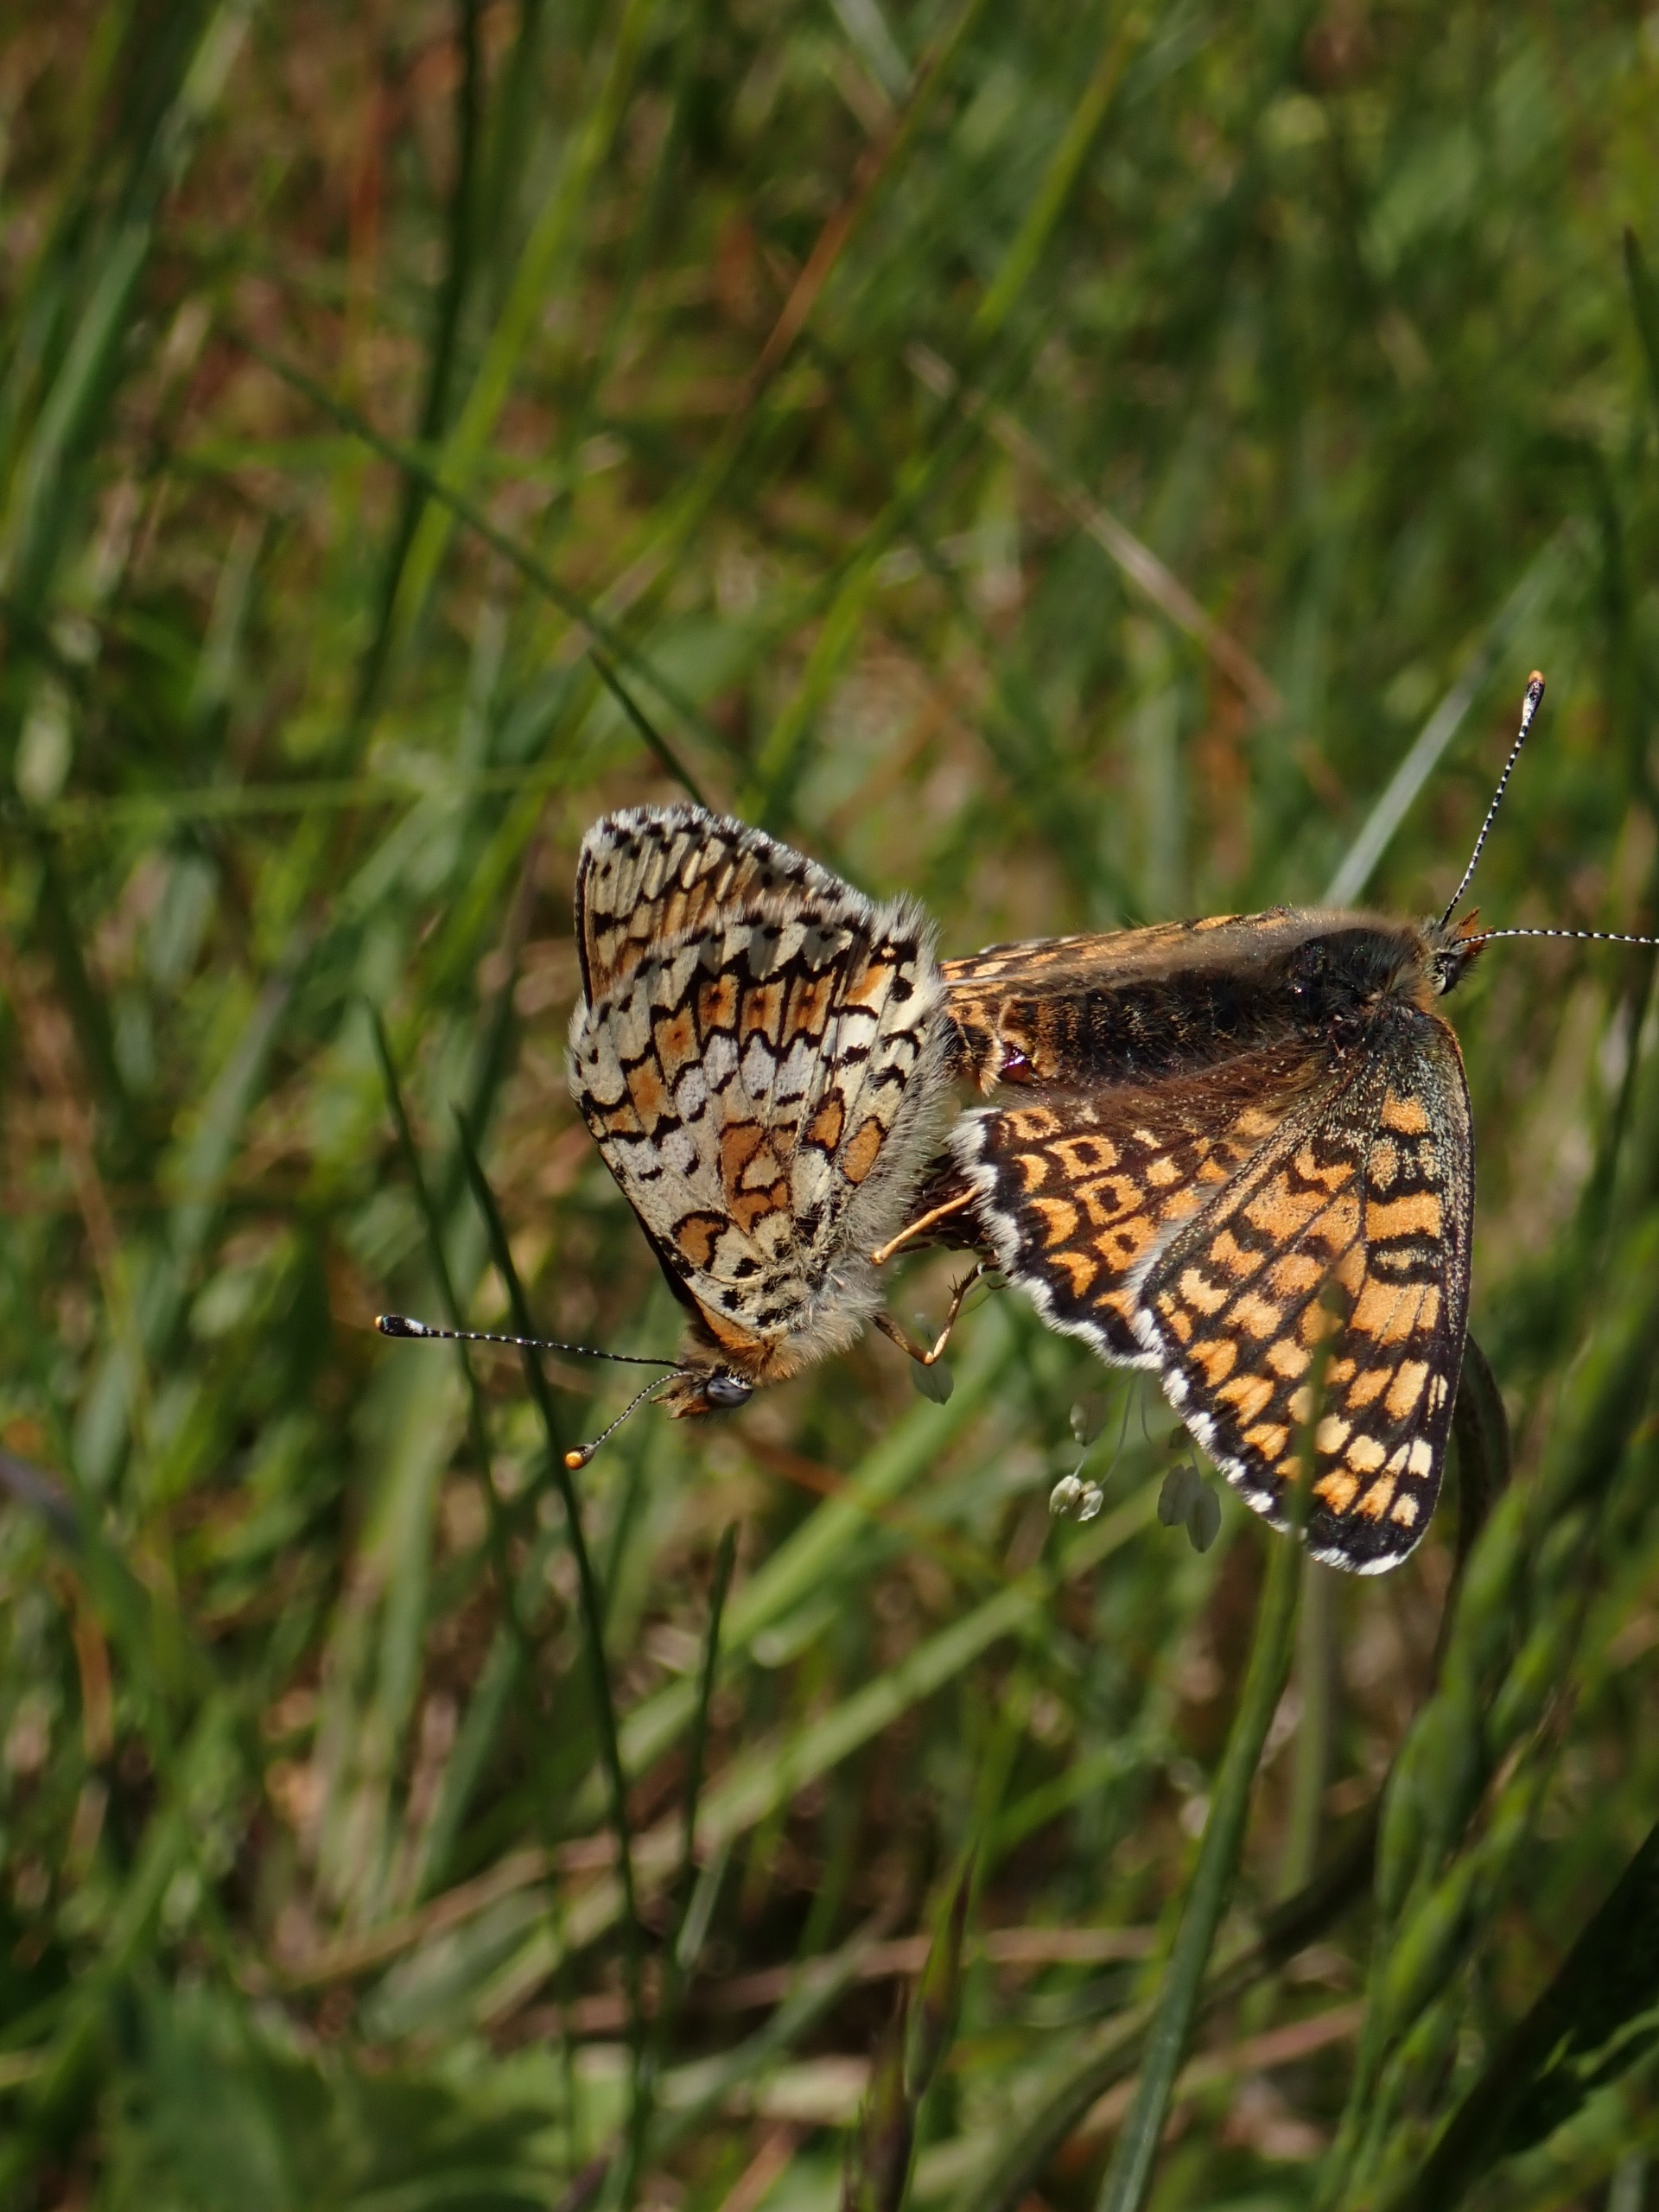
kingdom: Animalia
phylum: Arthropoda
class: Insecta
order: Lepidoptera
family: Nymphalidae
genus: Melitaea
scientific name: Melitaea cinxia
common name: Okkergul pletvinge
